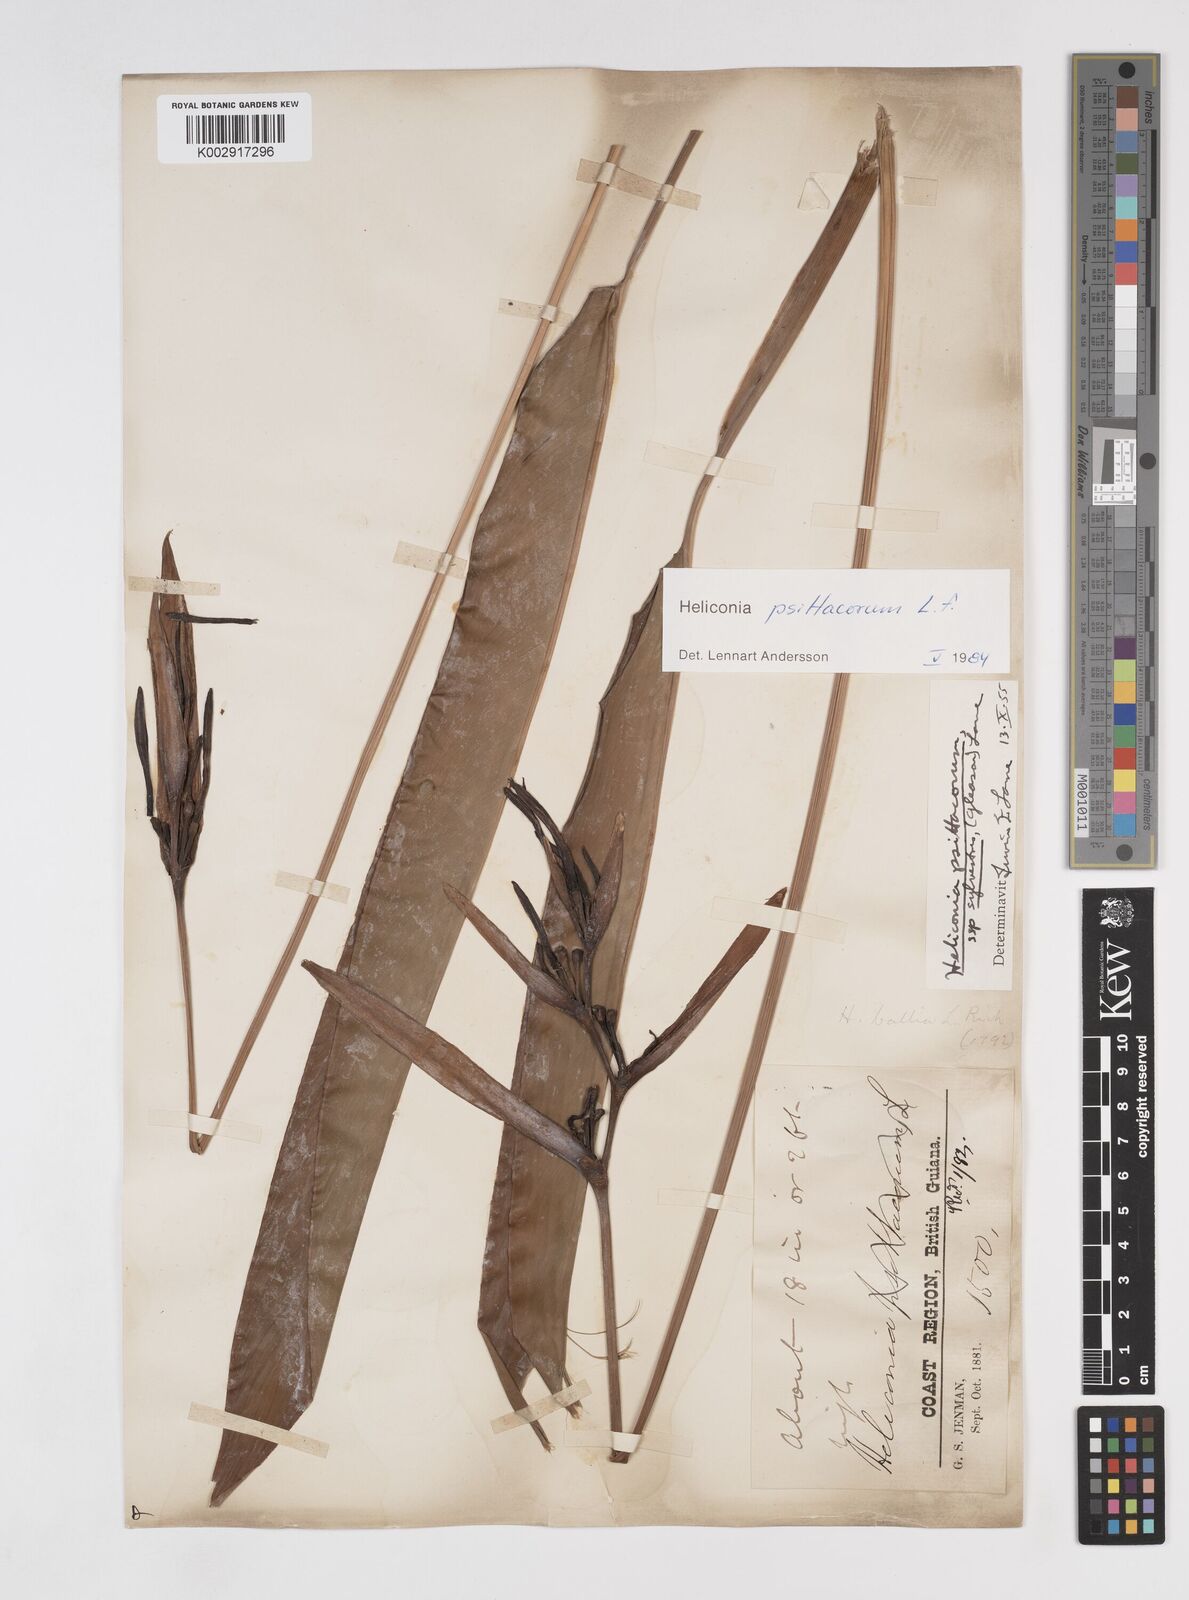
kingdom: Plantae
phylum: Tracheophyta
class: Liliopsida
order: Zingiberales
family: Heliconiaceae
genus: Heliconia
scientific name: Heliconia psittacorum
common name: Parrot's-flower
